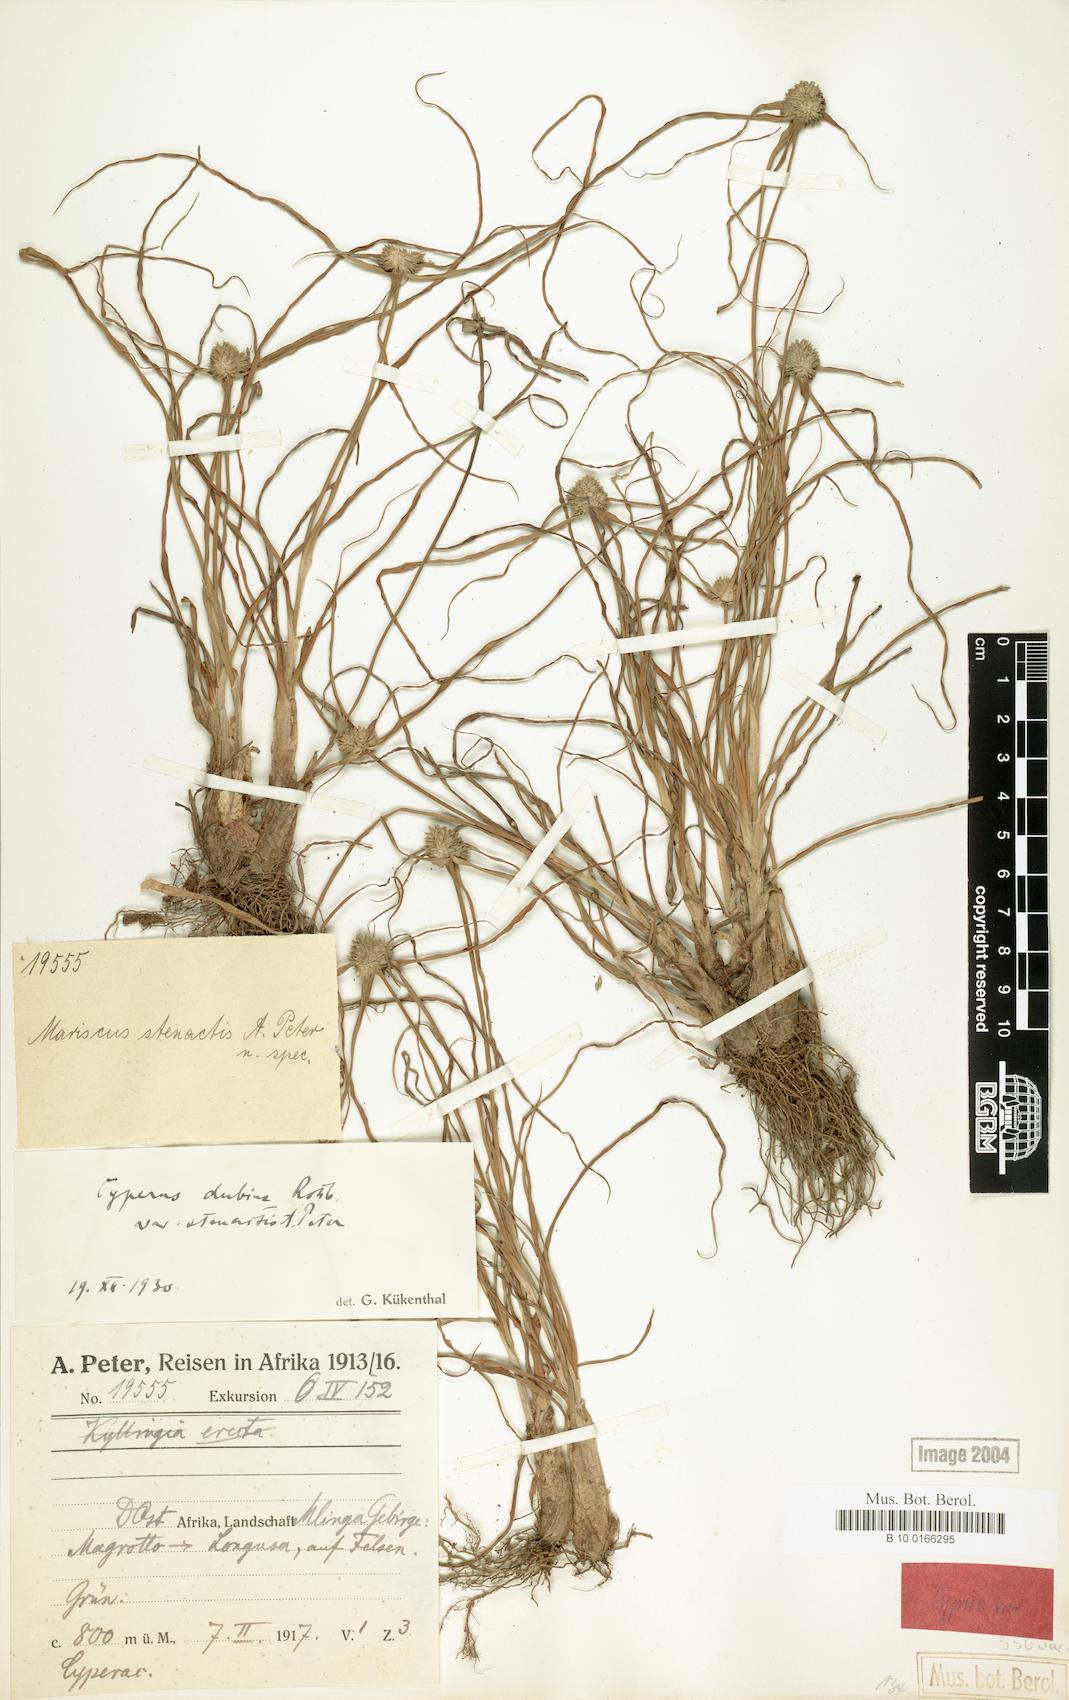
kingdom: Plantae
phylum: Tracheophyta
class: Liliopsida
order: Poales
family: Cyperaceae
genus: Cyperus
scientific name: Cyperus dubius
